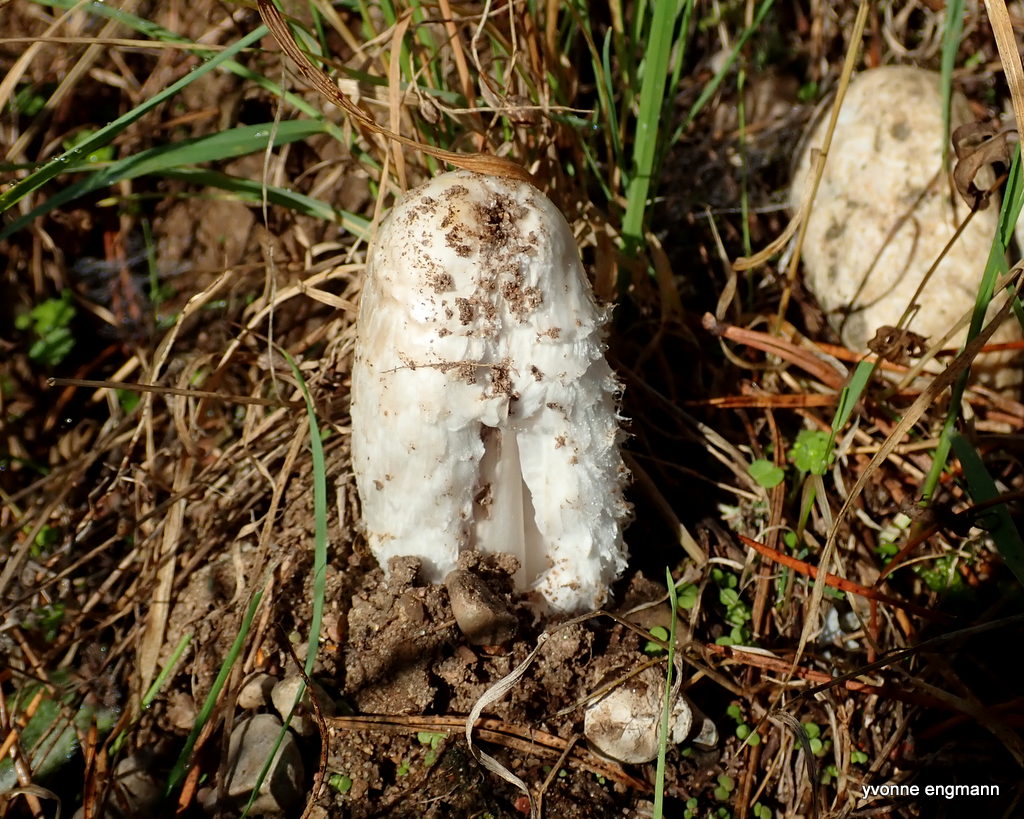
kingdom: Fungi
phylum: Basidiomycota
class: Agaricomycetes
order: Agaricales
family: Agaricaceae
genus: Coprinus
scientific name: Coprinus comatus
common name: stor parykhat
